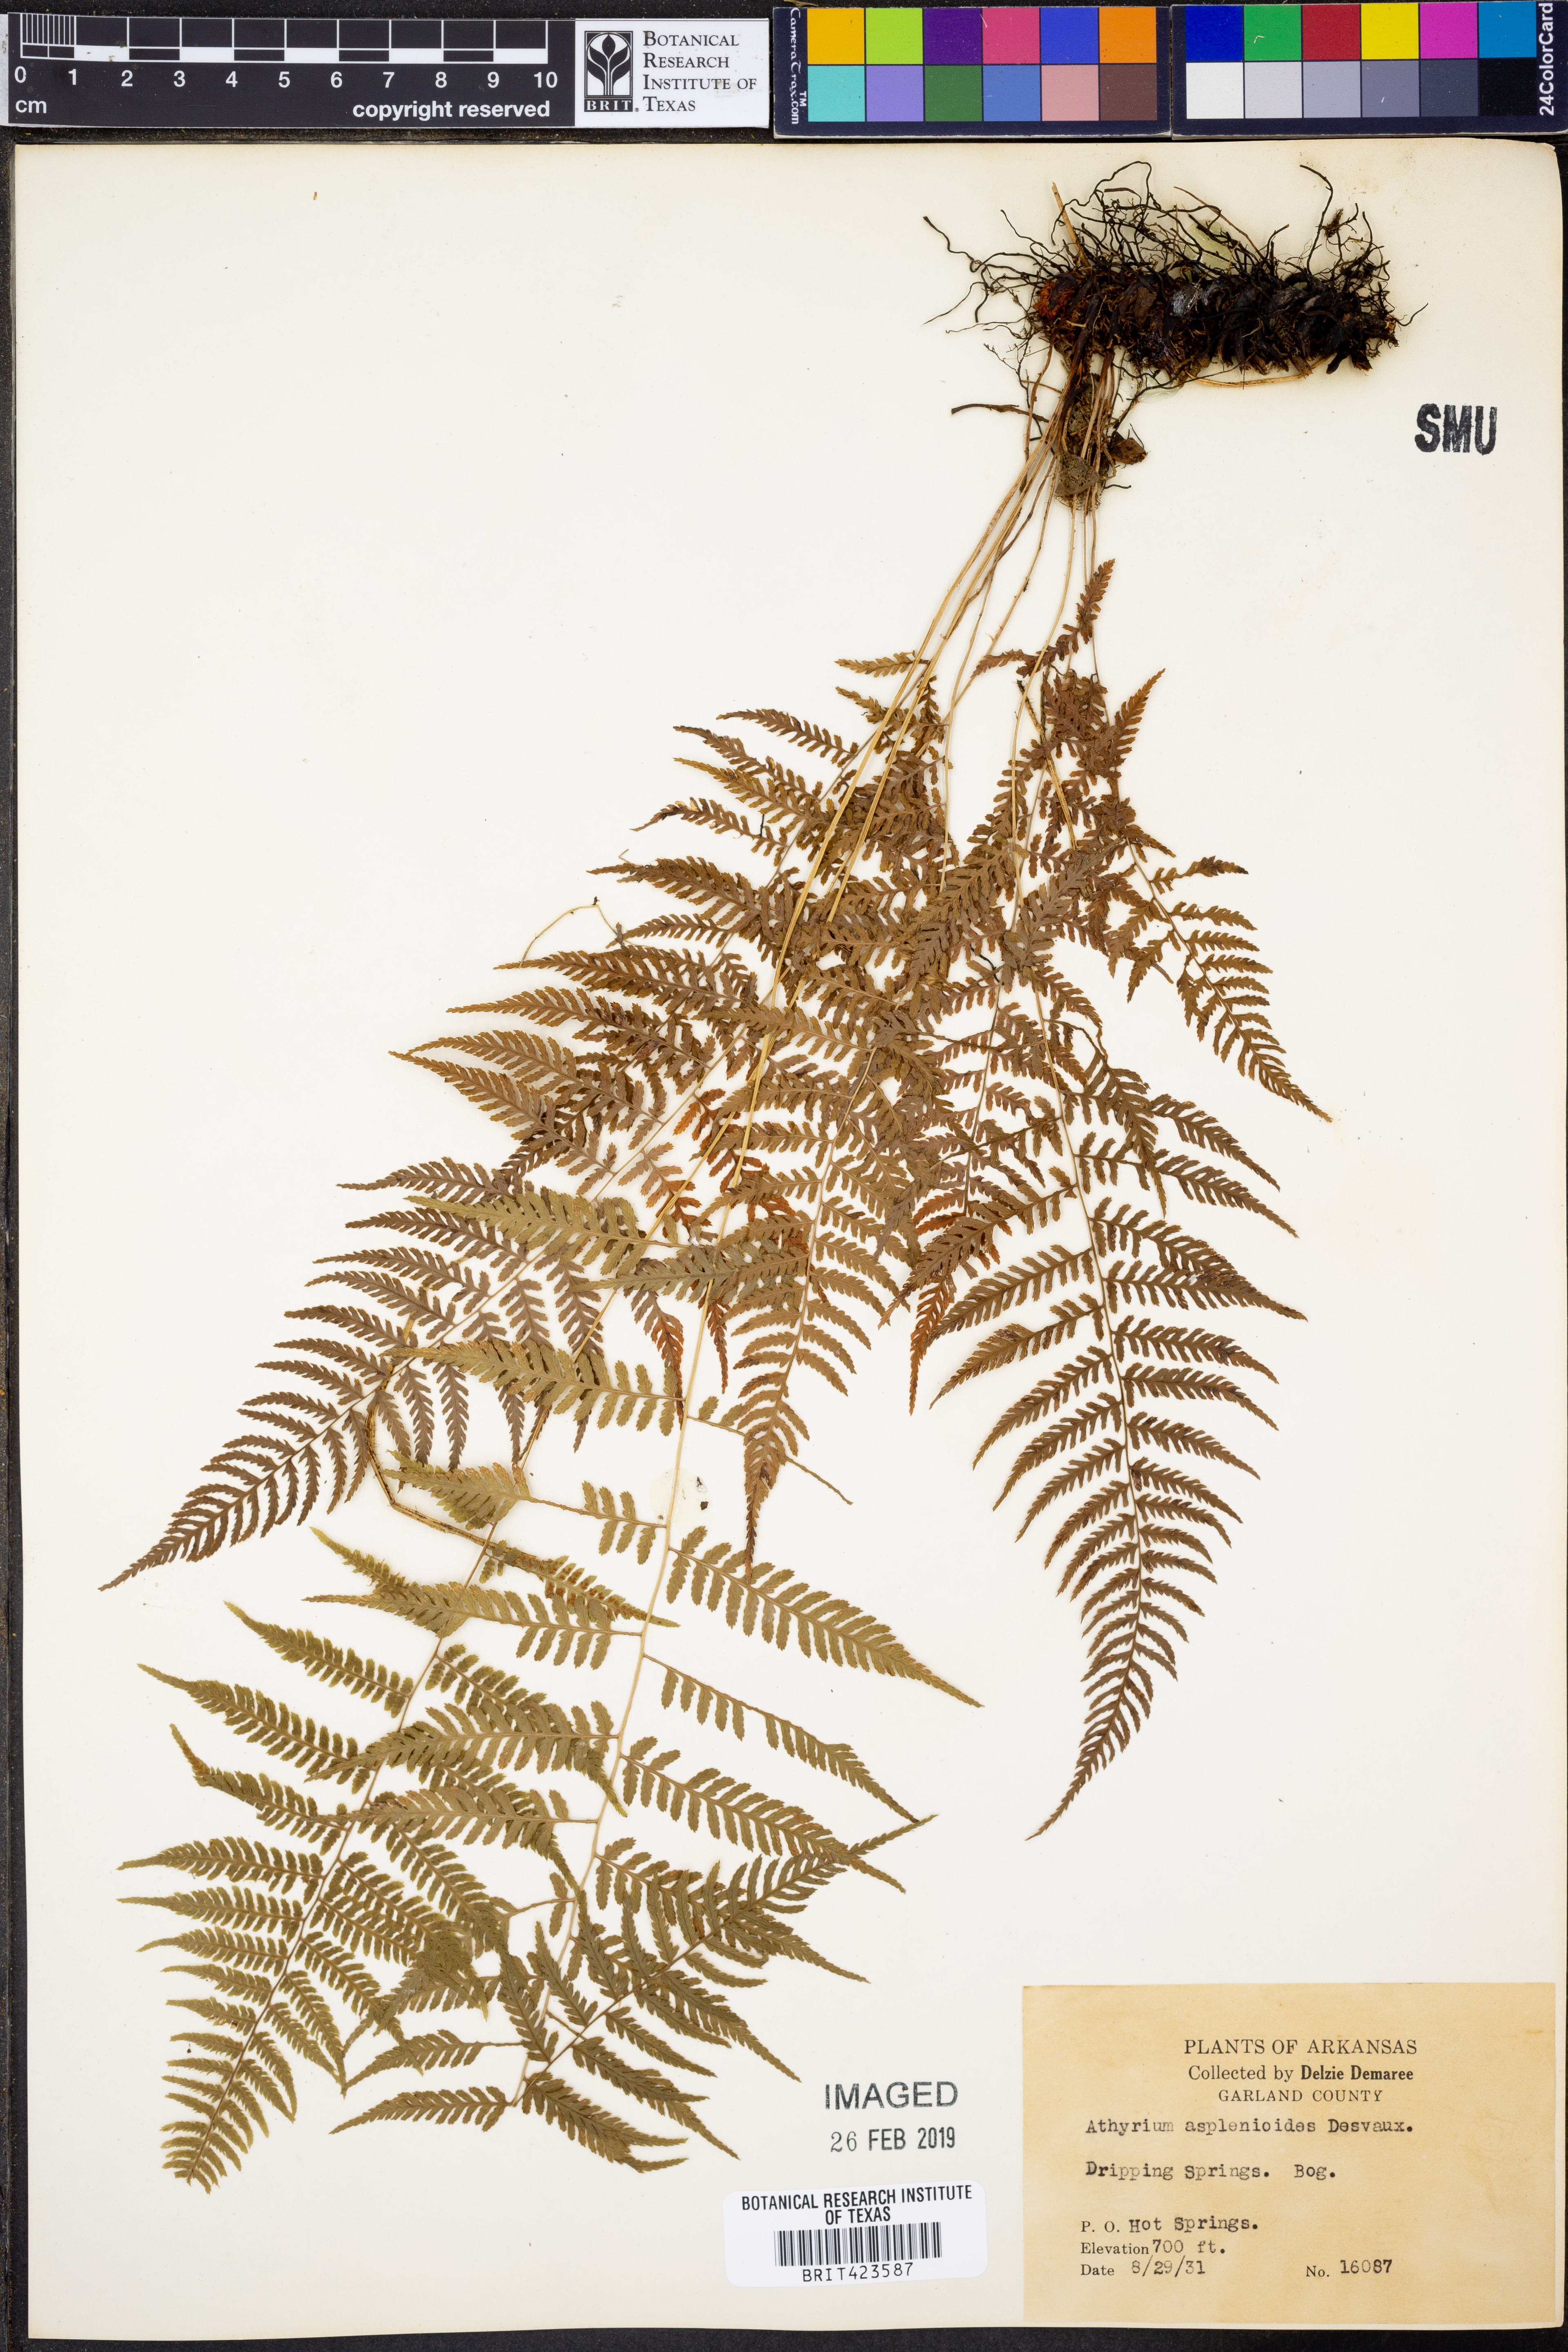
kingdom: Plantae
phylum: Tracheophyta
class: Polypodiopsida
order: Polypodiales
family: Athyriaceae
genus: Athyrium
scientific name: Athyrium asplenioides
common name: Southern lady fern
